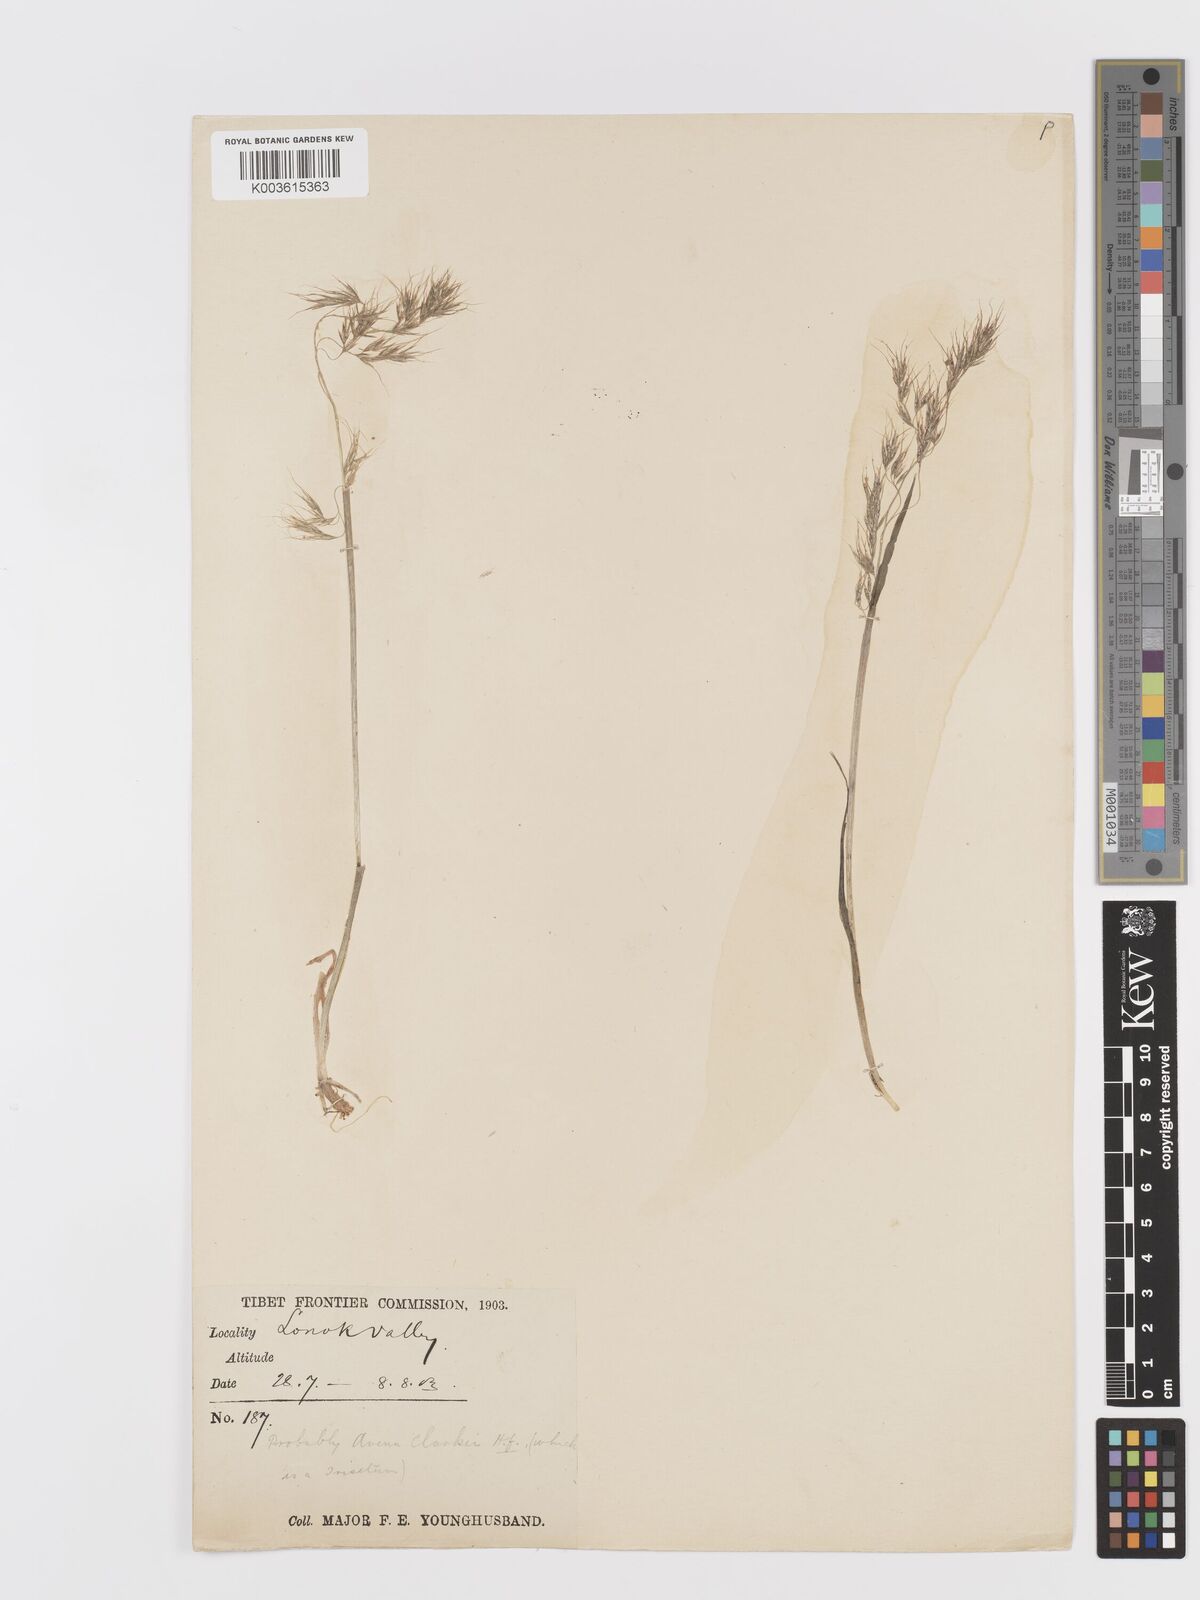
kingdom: Plantae
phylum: Tracheophyta
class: Liliopsida
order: Poales
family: Poaceae
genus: Sibirotrisetum
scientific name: Sibirotrisetum scitulum
